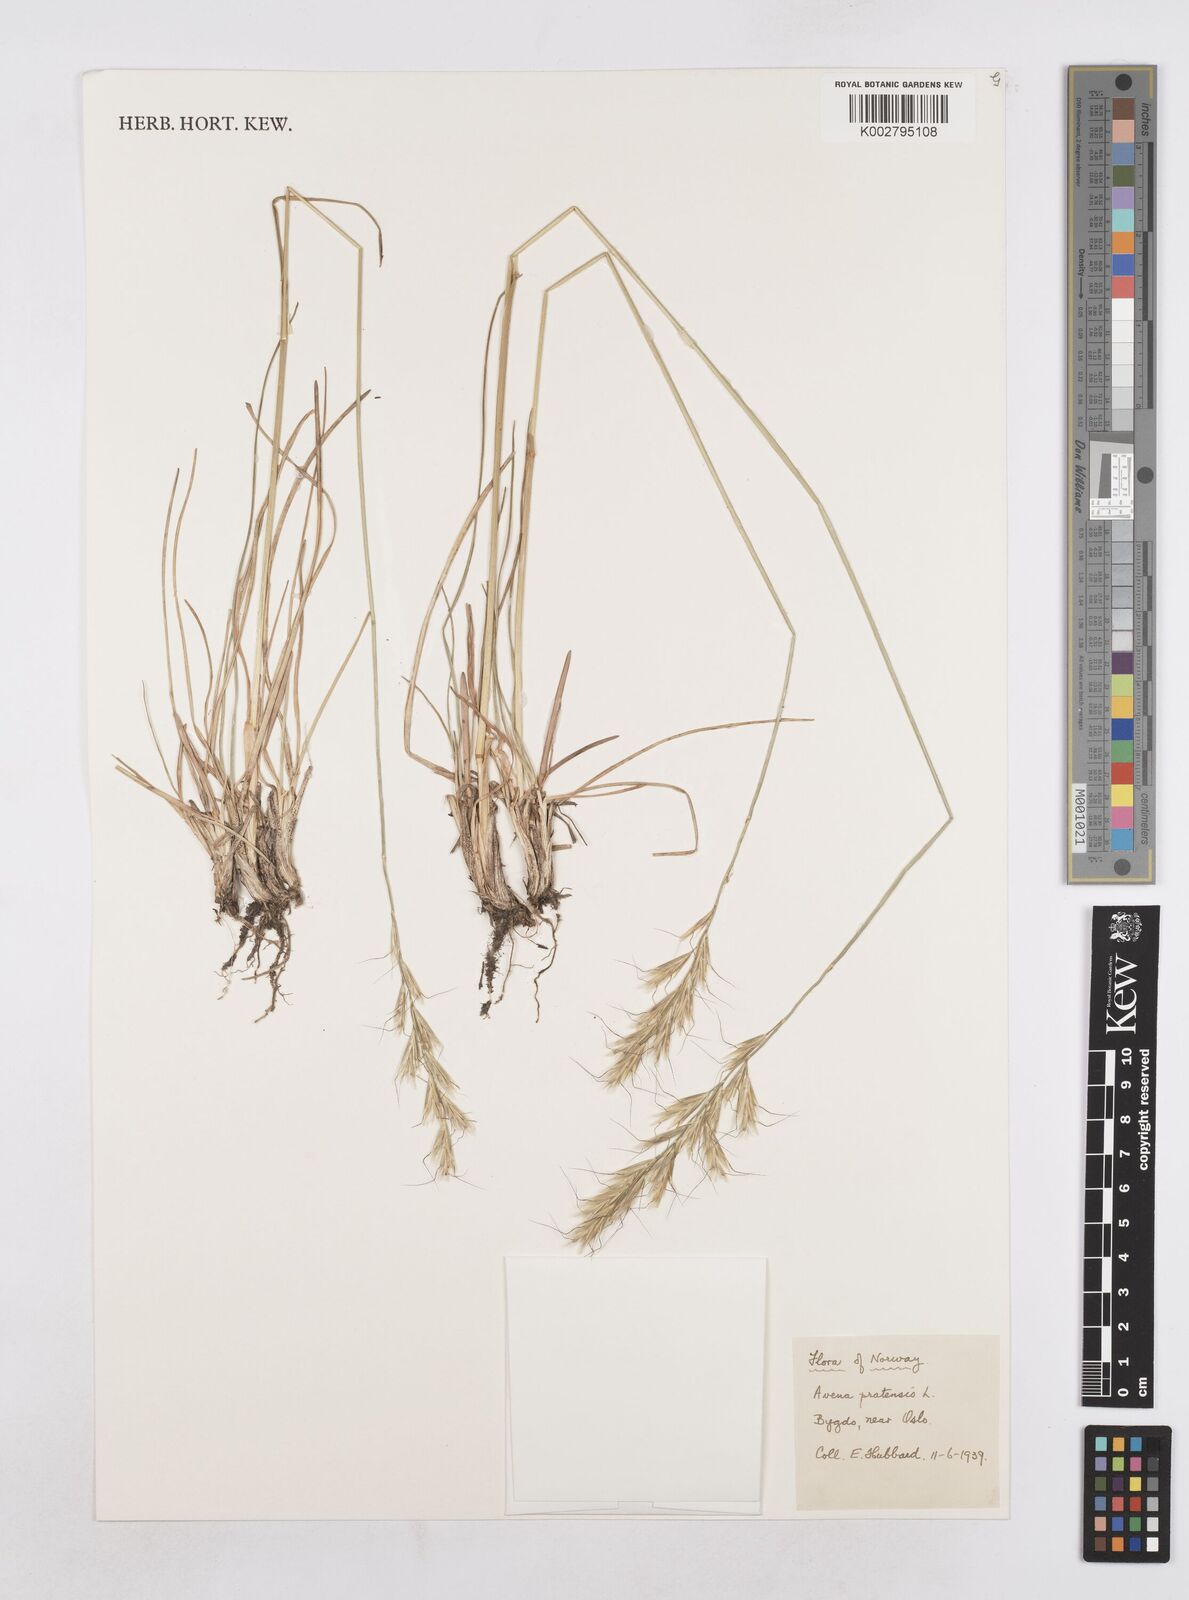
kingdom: Plantae
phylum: Tracheophyta
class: Liliopsida
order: Poales
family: Poaceae
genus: Helictochloa
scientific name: Helictochloa pratensis
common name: Meadow oat grass
